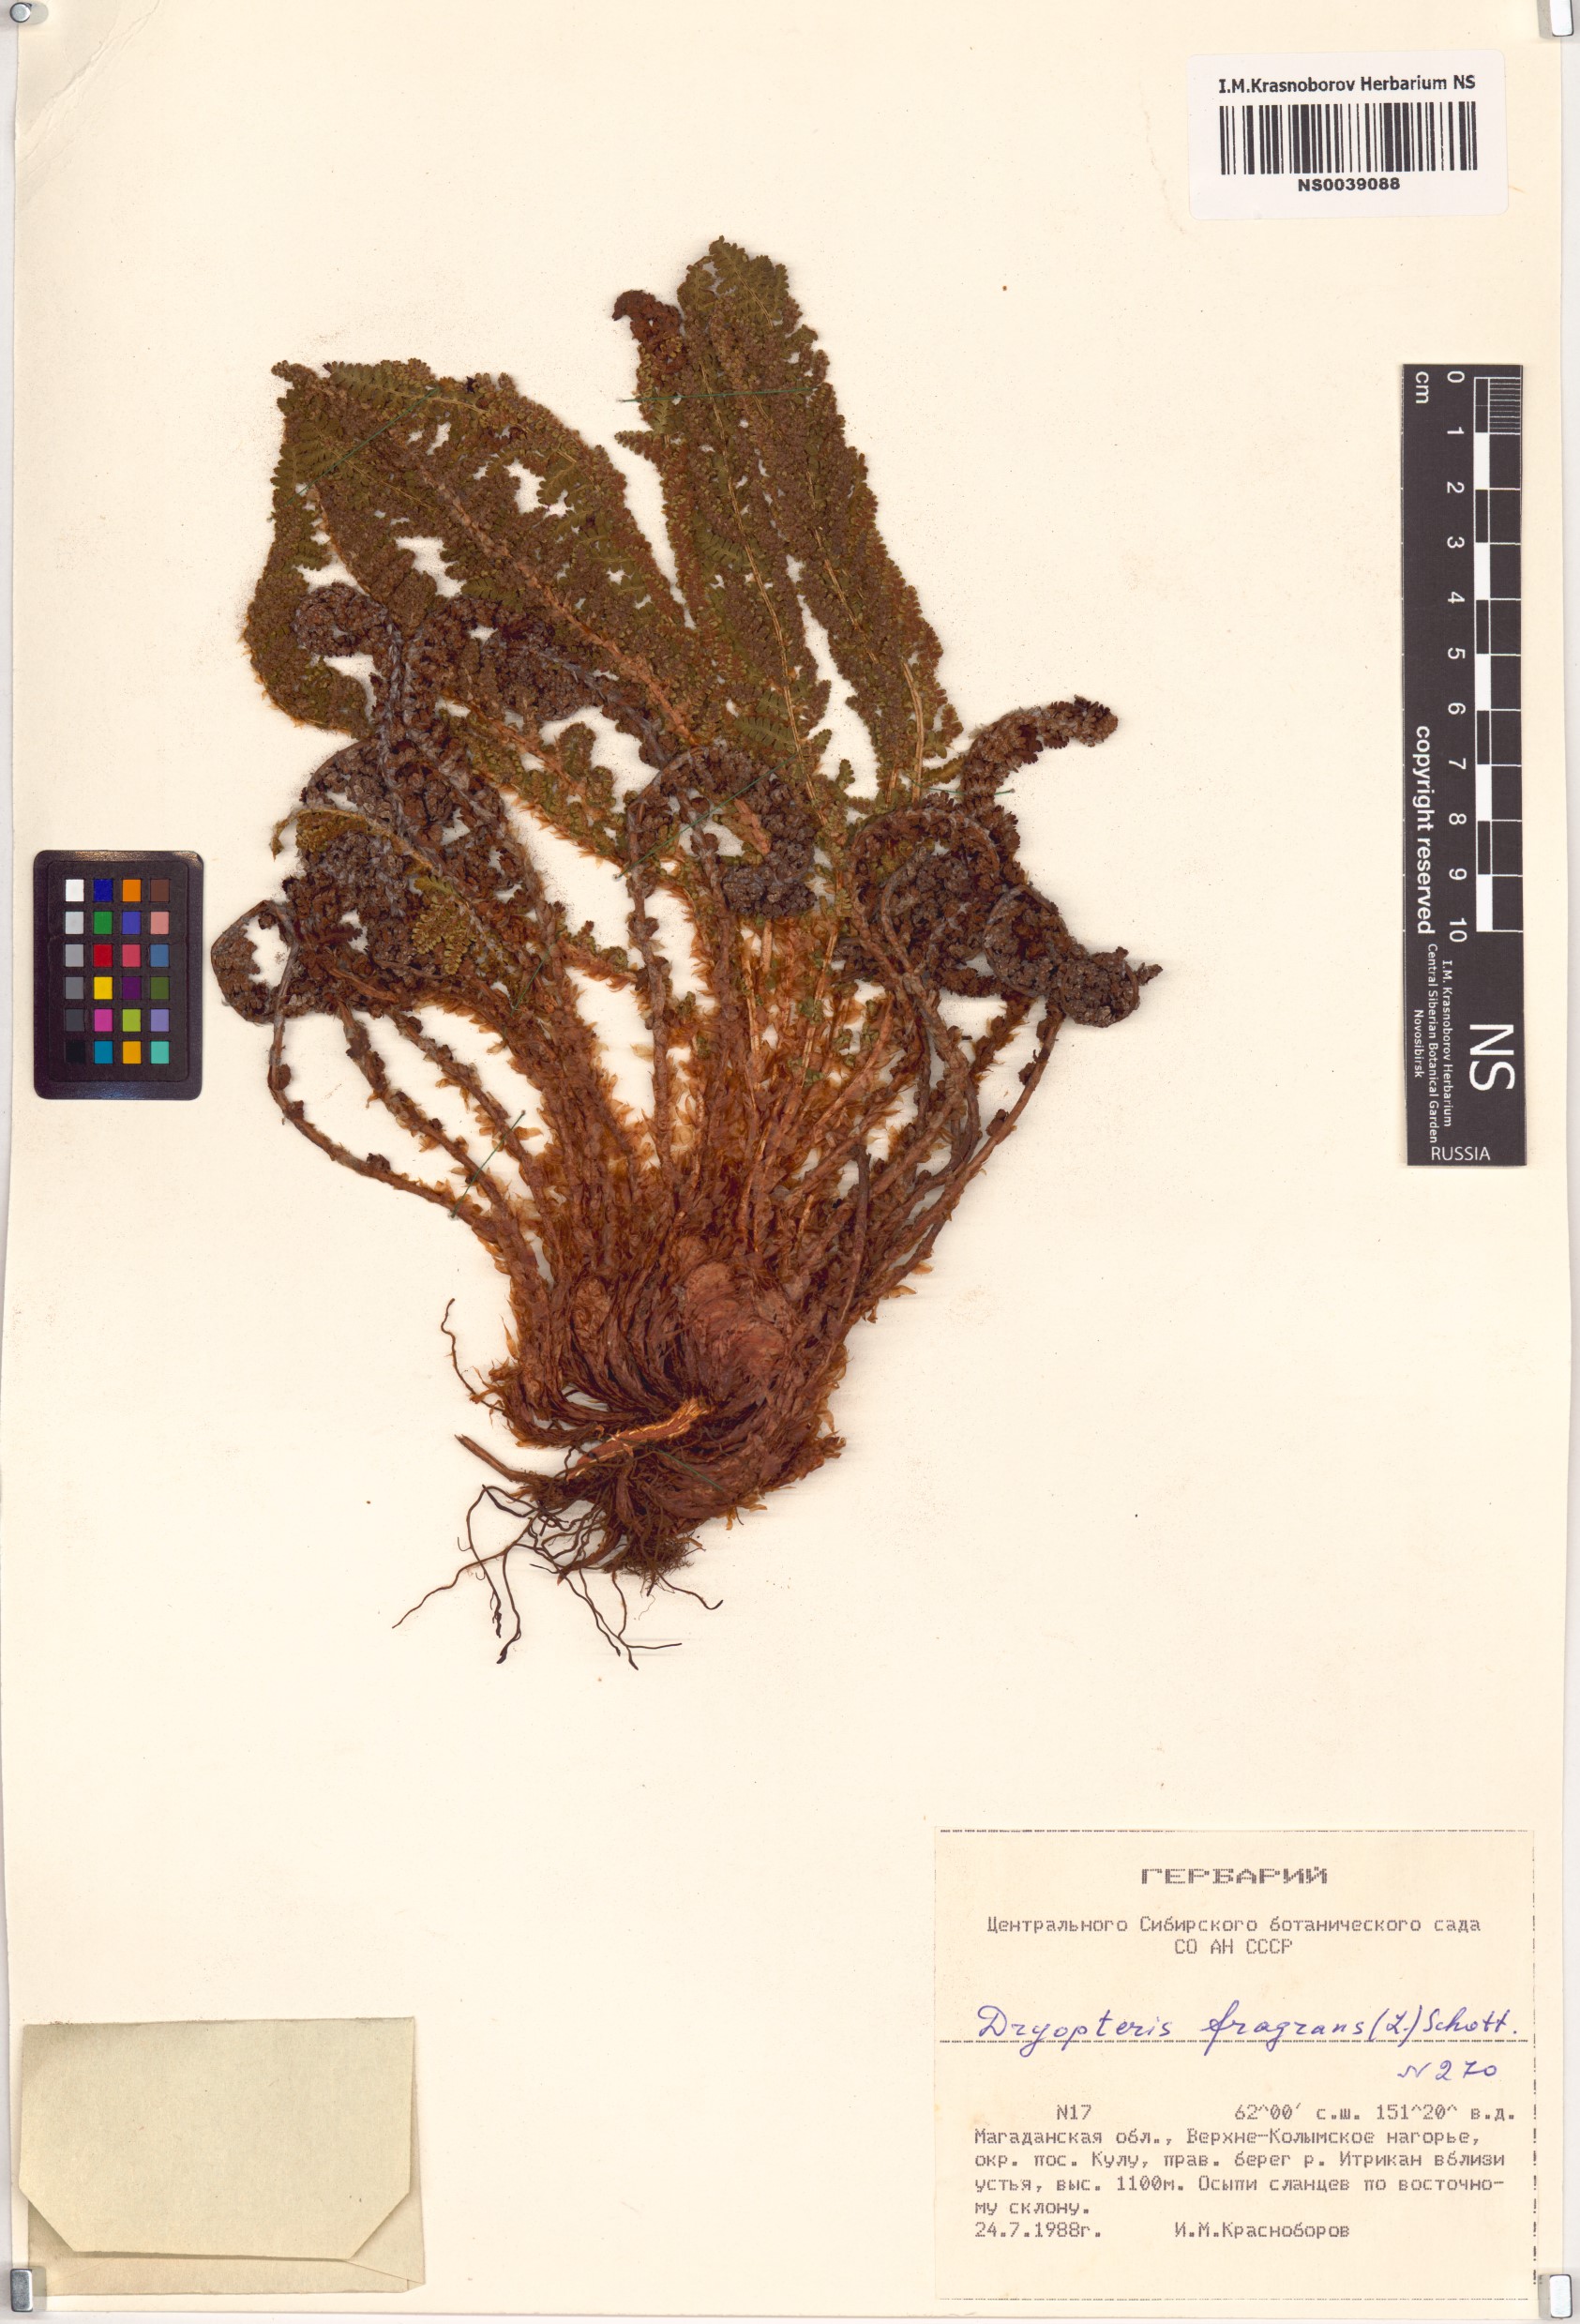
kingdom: Plantae
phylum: Tracheophyta
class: Polypodiopsida
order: Polypodiales
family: Dryopteridaceae
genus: Dryopteris
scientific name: Dryopteris fragrans
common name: Fragrant wood fern
